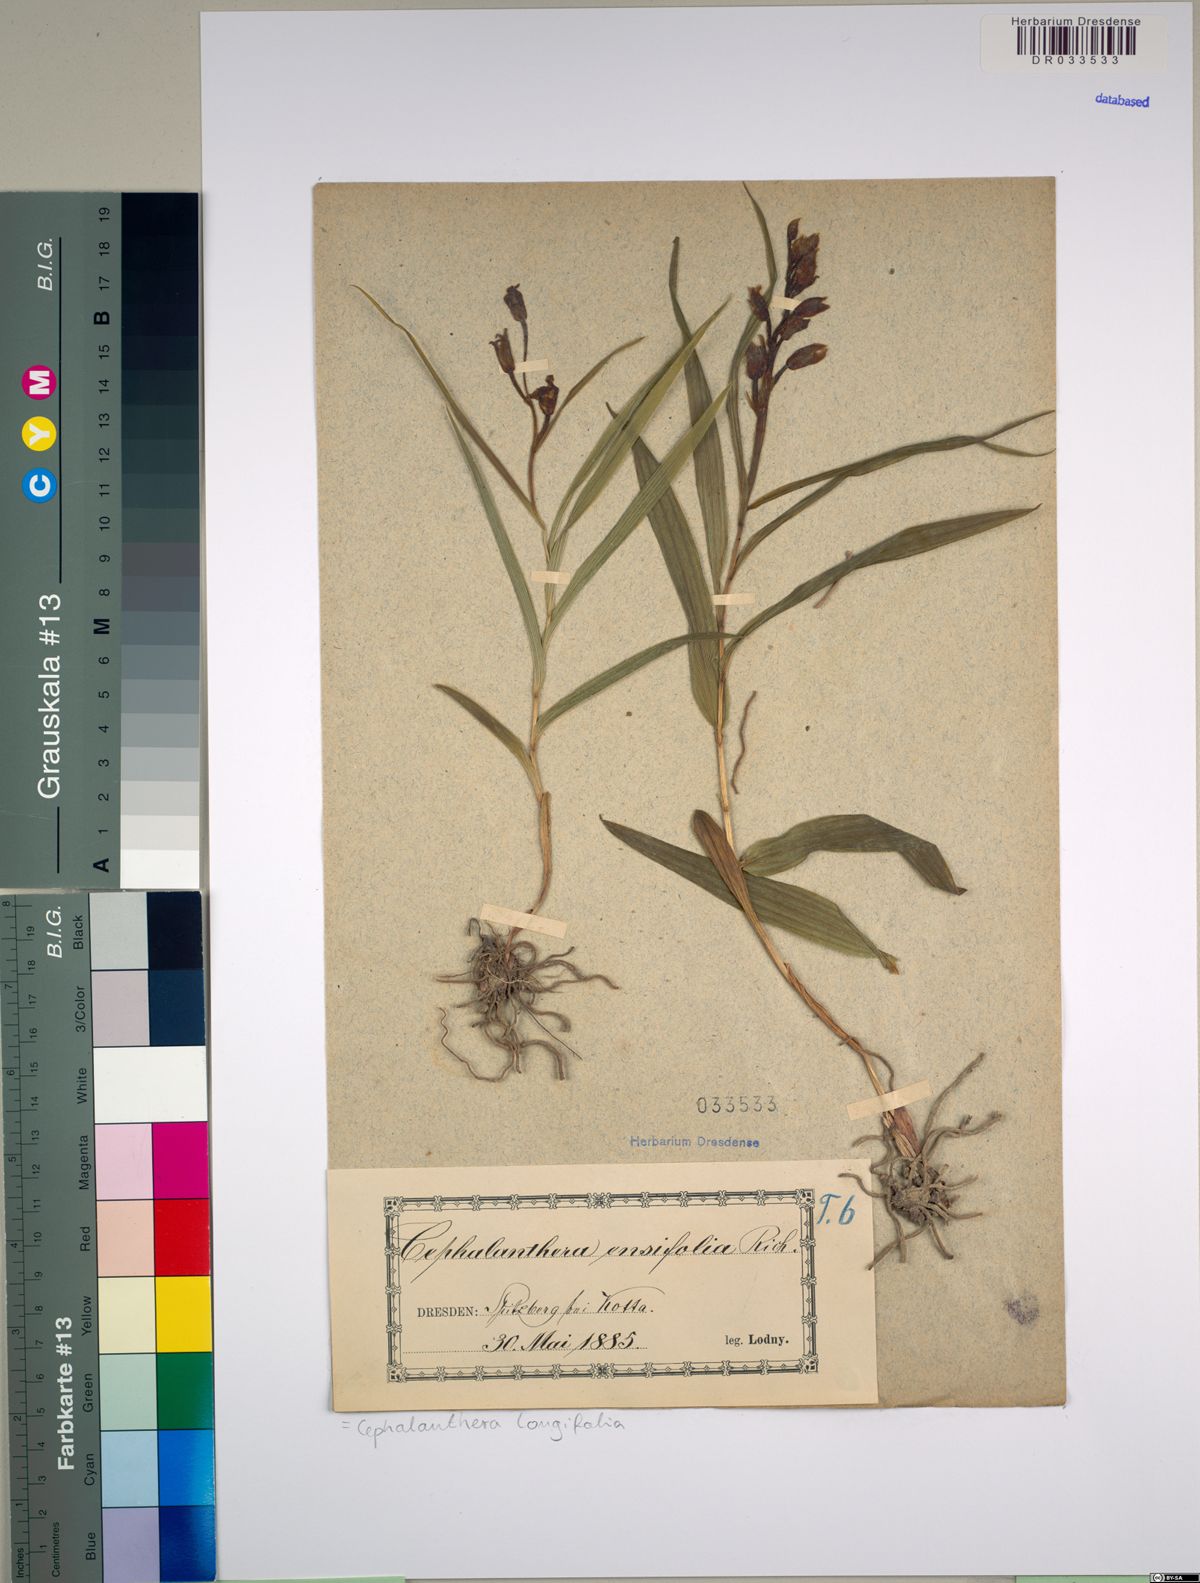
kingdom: Plantae
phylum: Tracheophyta
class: Liliopsida
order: Asparagales
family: Orchidaceae
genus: Cephalanthera
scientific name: Cephalanthera longifolia
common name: Narrow-leaved helleborine
